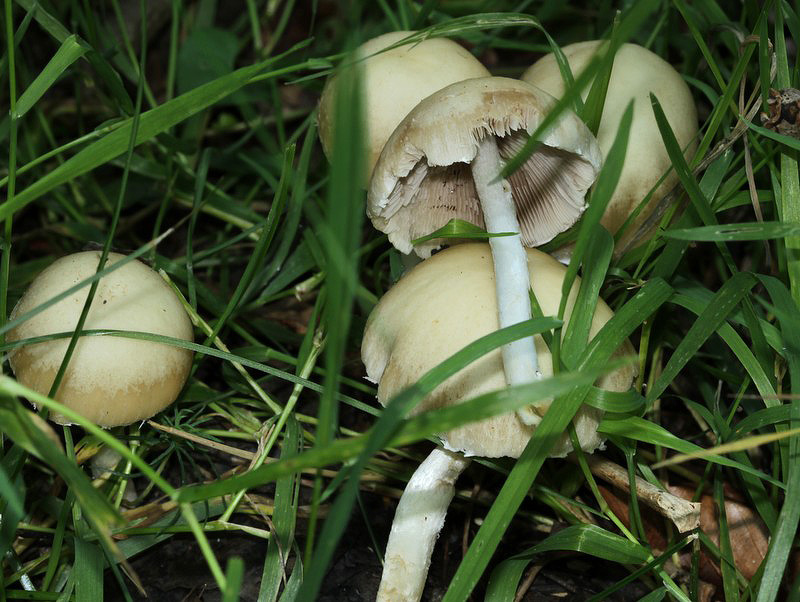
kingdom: Fungi
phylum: Basidiomycota
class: Agaricomycetes
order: Agaricales
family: Psathyrellaceae
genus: Candolleomyces
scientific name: Candolleomyces candolleanus
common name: Candolles mørkhat
